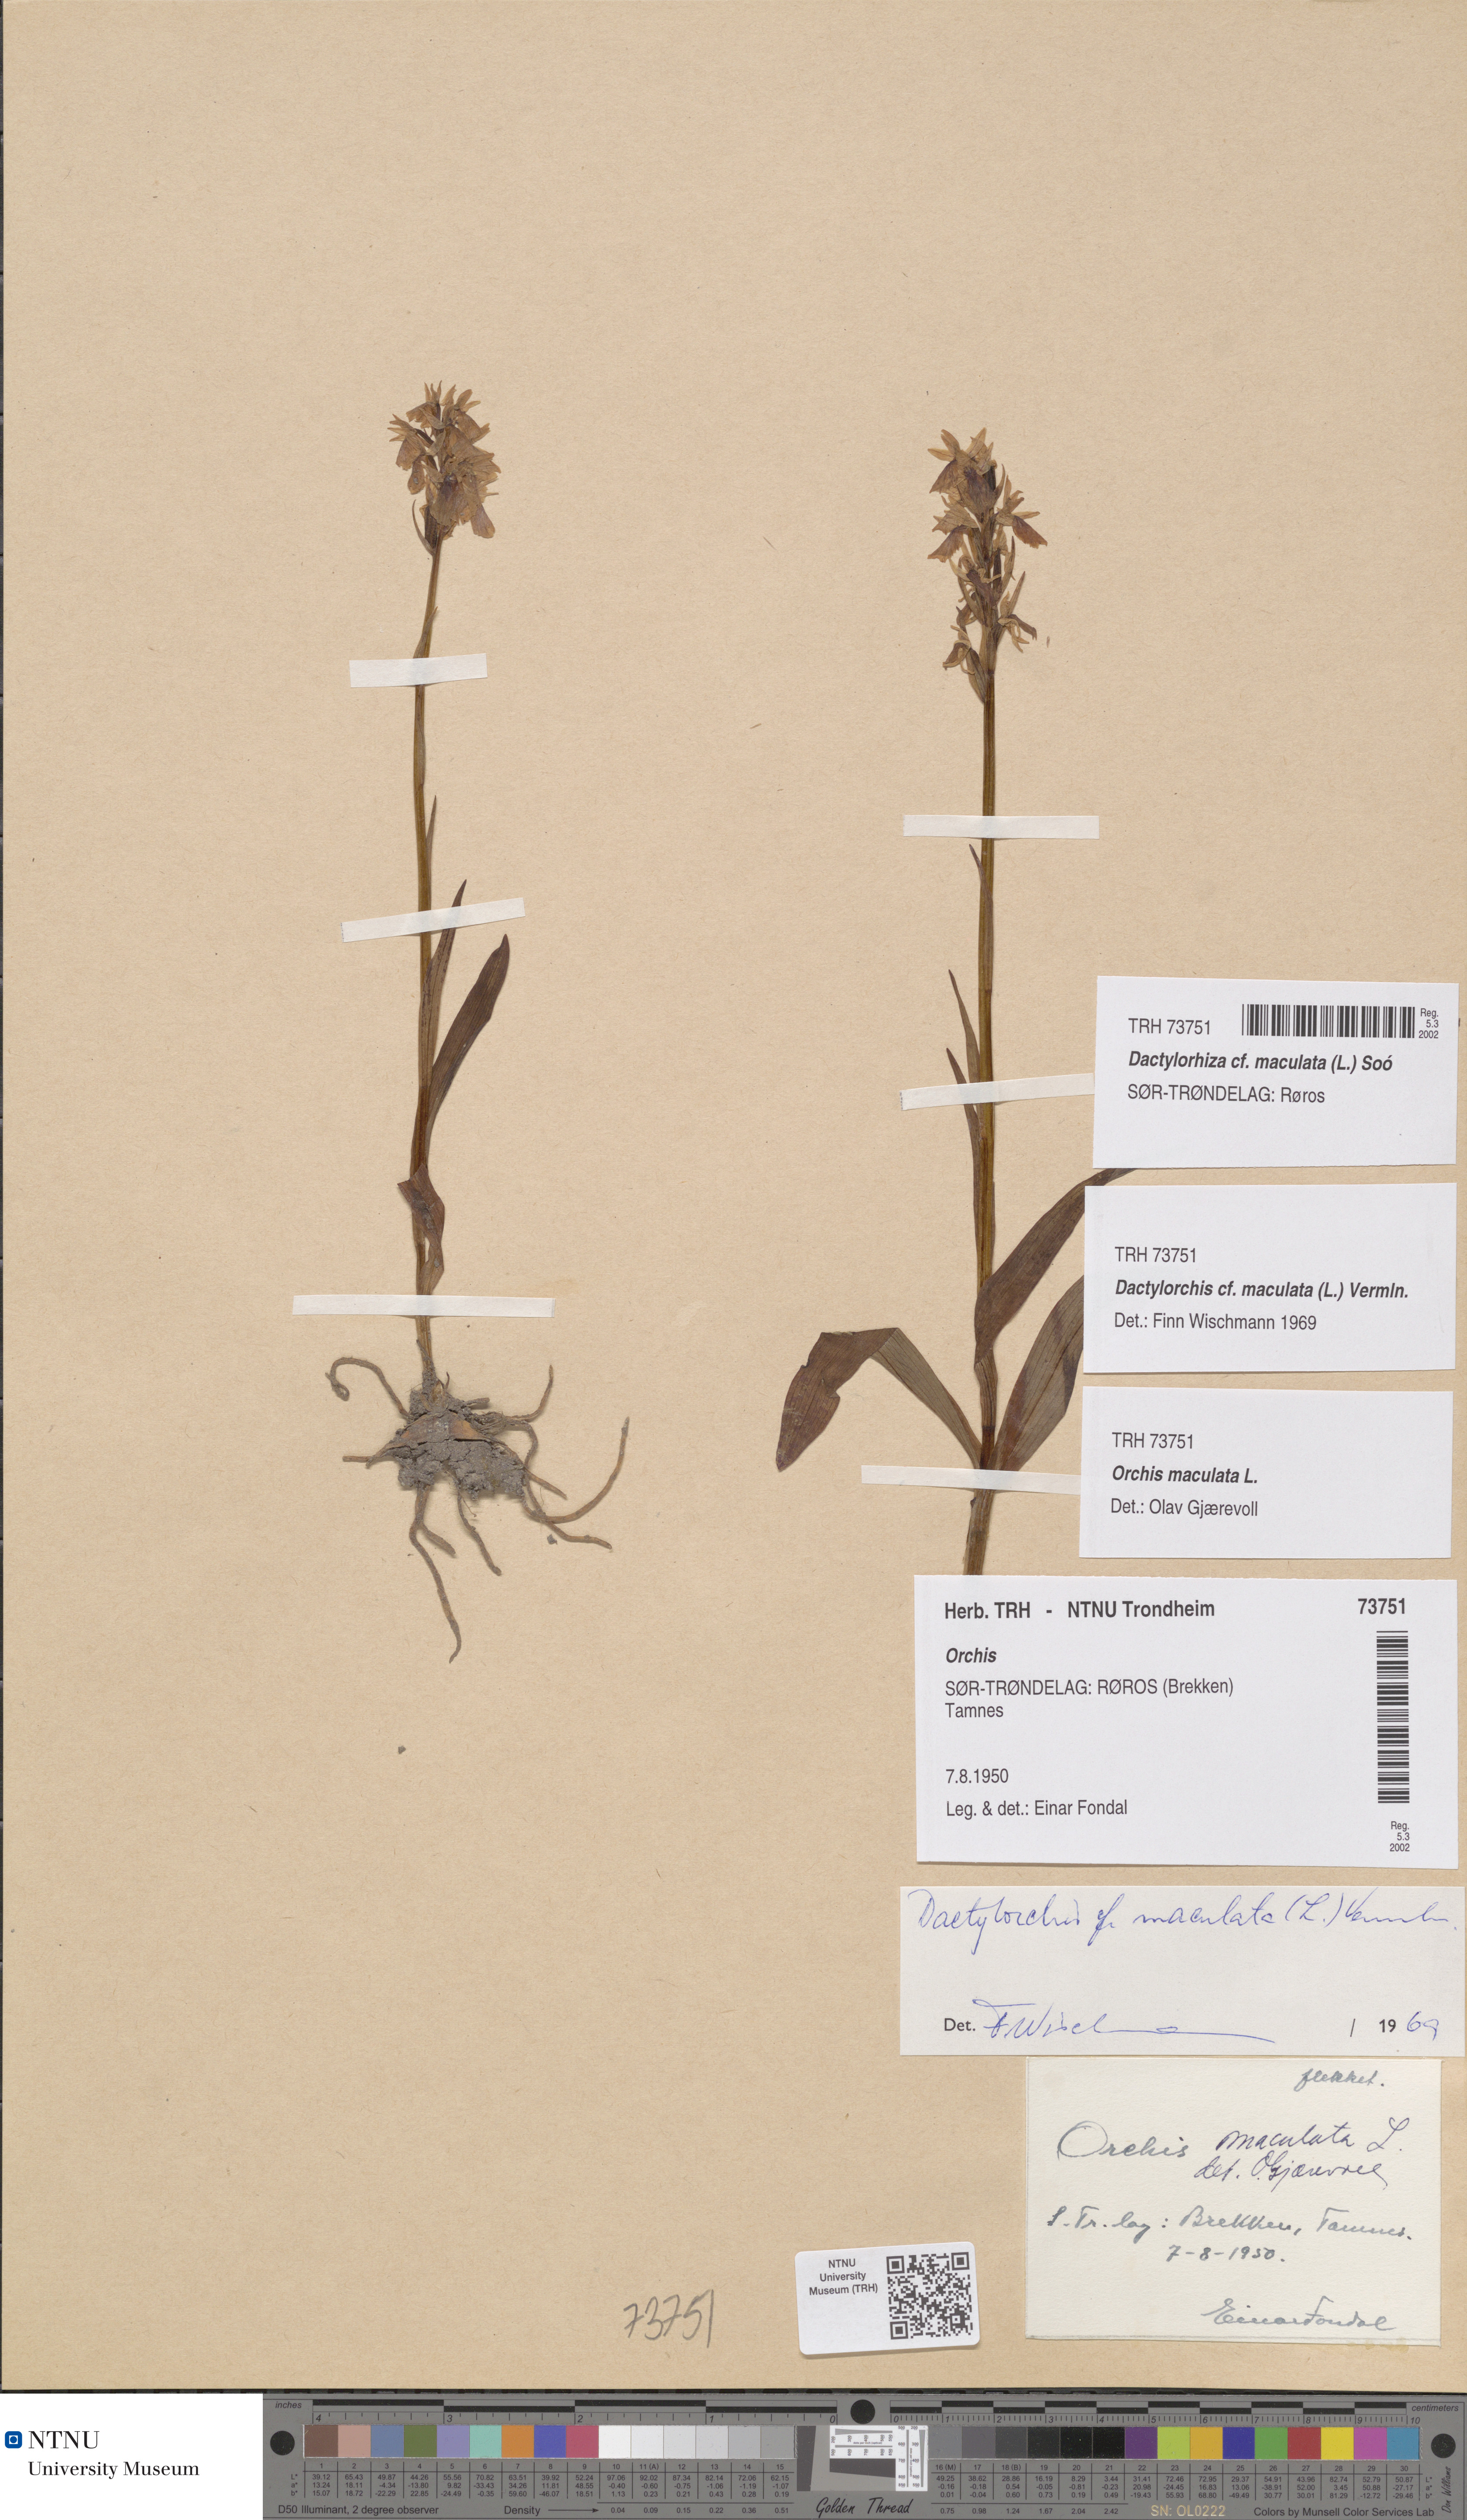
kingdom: Plantae
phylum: Tracheophyta
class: Liliopsida
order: Asparagales
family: Orchidaceae
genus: Dactylorhiza
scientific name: Dactylorhiza maculata
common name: Heath spotted-orchid
